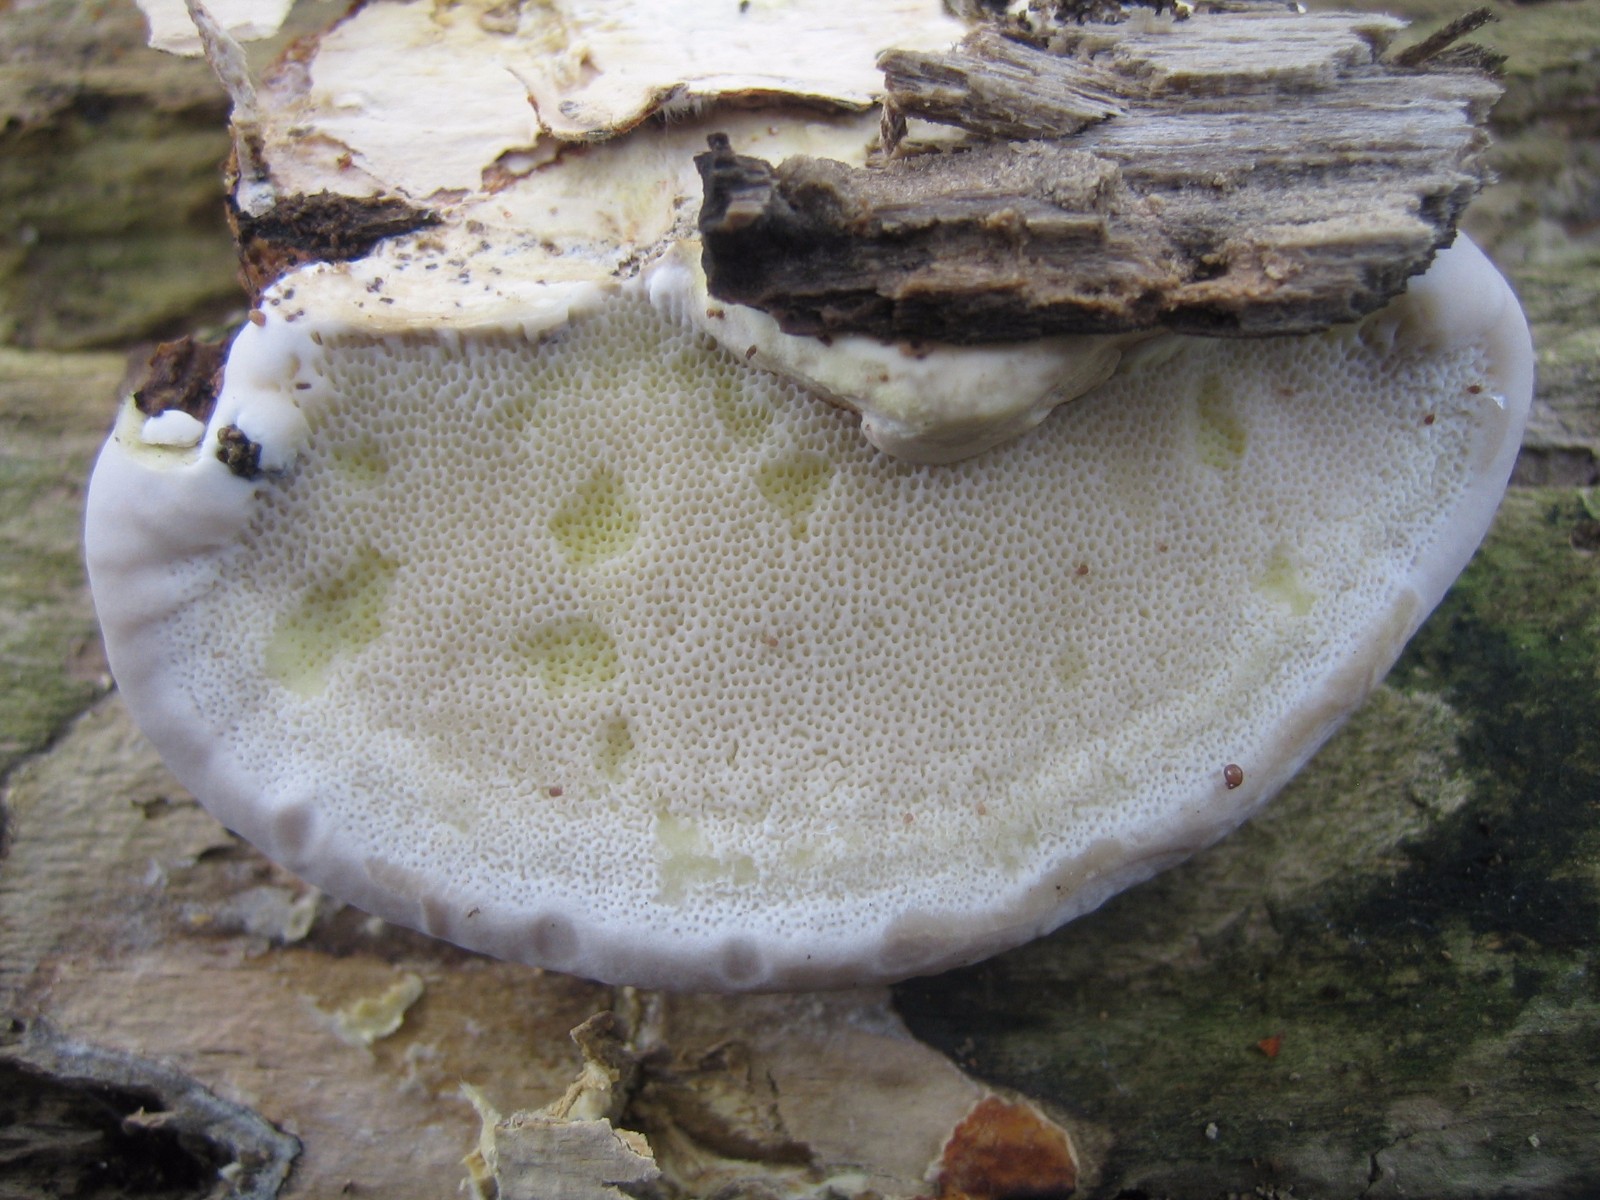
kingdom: Fungi
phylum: Basidiomycota
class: Agaricomycetes
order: Polyporales
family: Fomitopsidaceae
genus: Fomitopsis
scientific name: Fomitopsis pinicola
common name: randbæltet hovporesvamp
